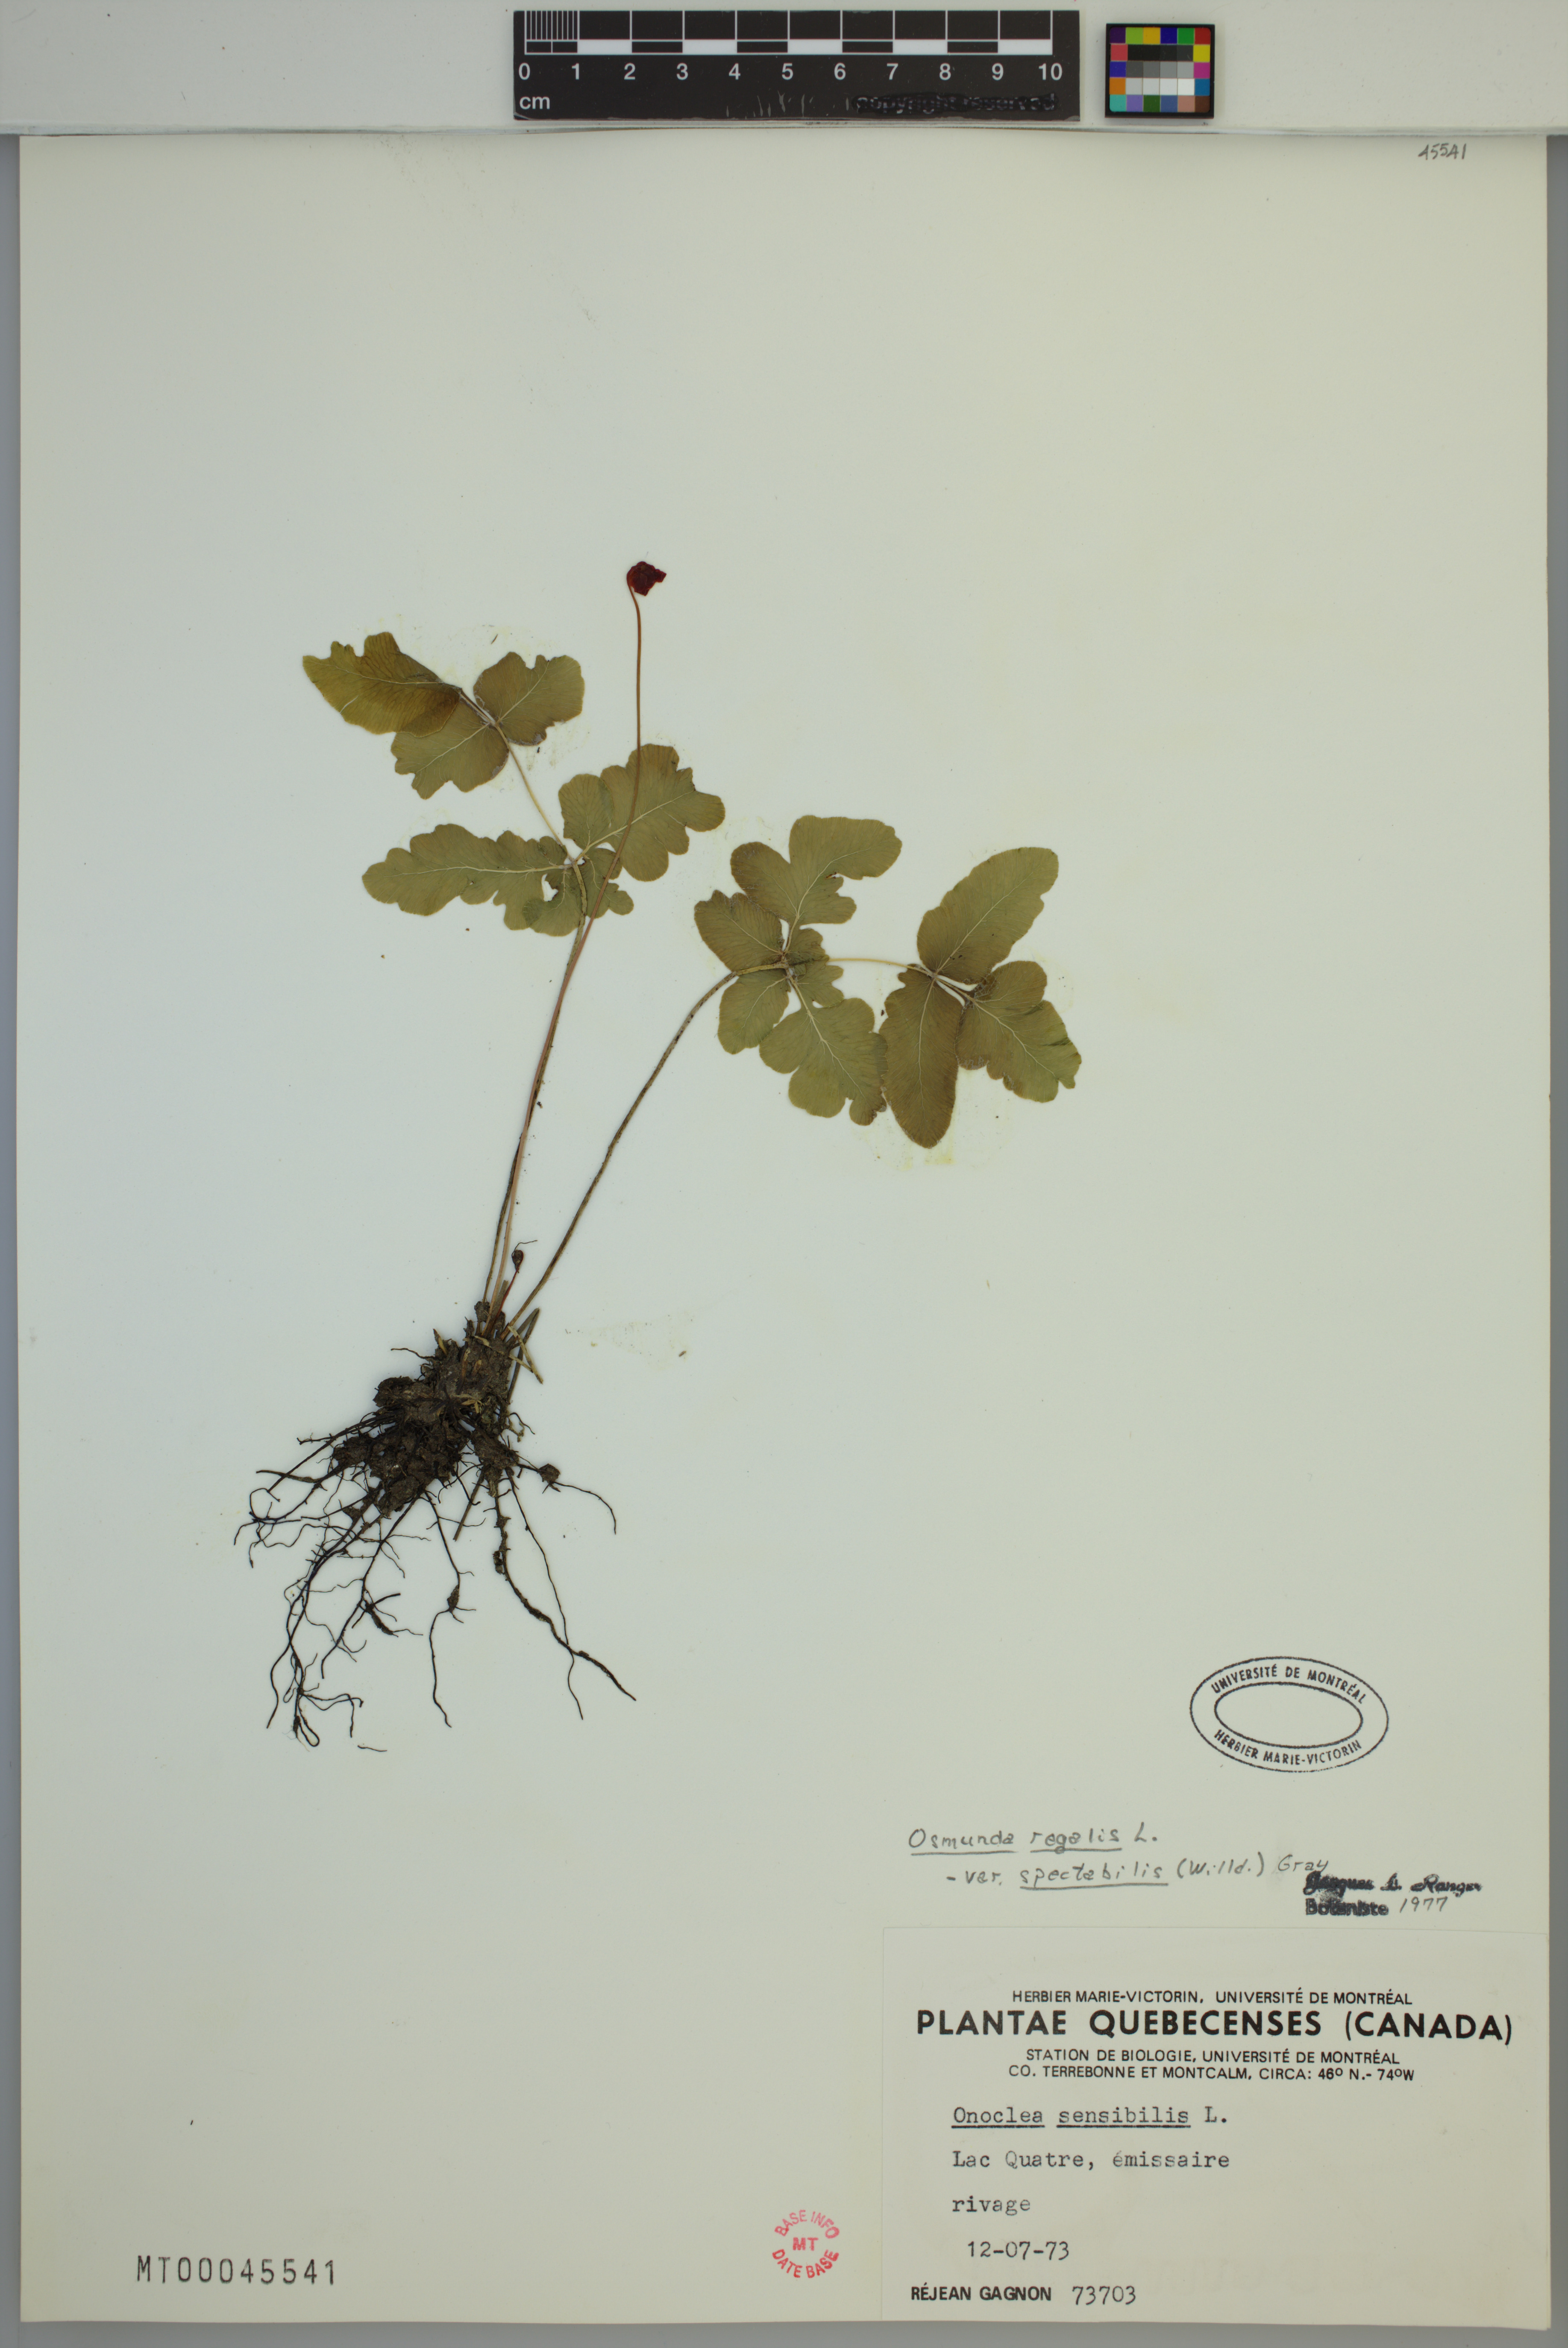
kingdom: Plantae
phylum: Tracheophyta
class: Polypodiopsida
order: Osmundales
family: Osmundaceae
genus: Osmunda
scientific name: Osmunda spectabilis
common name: American royal fern
